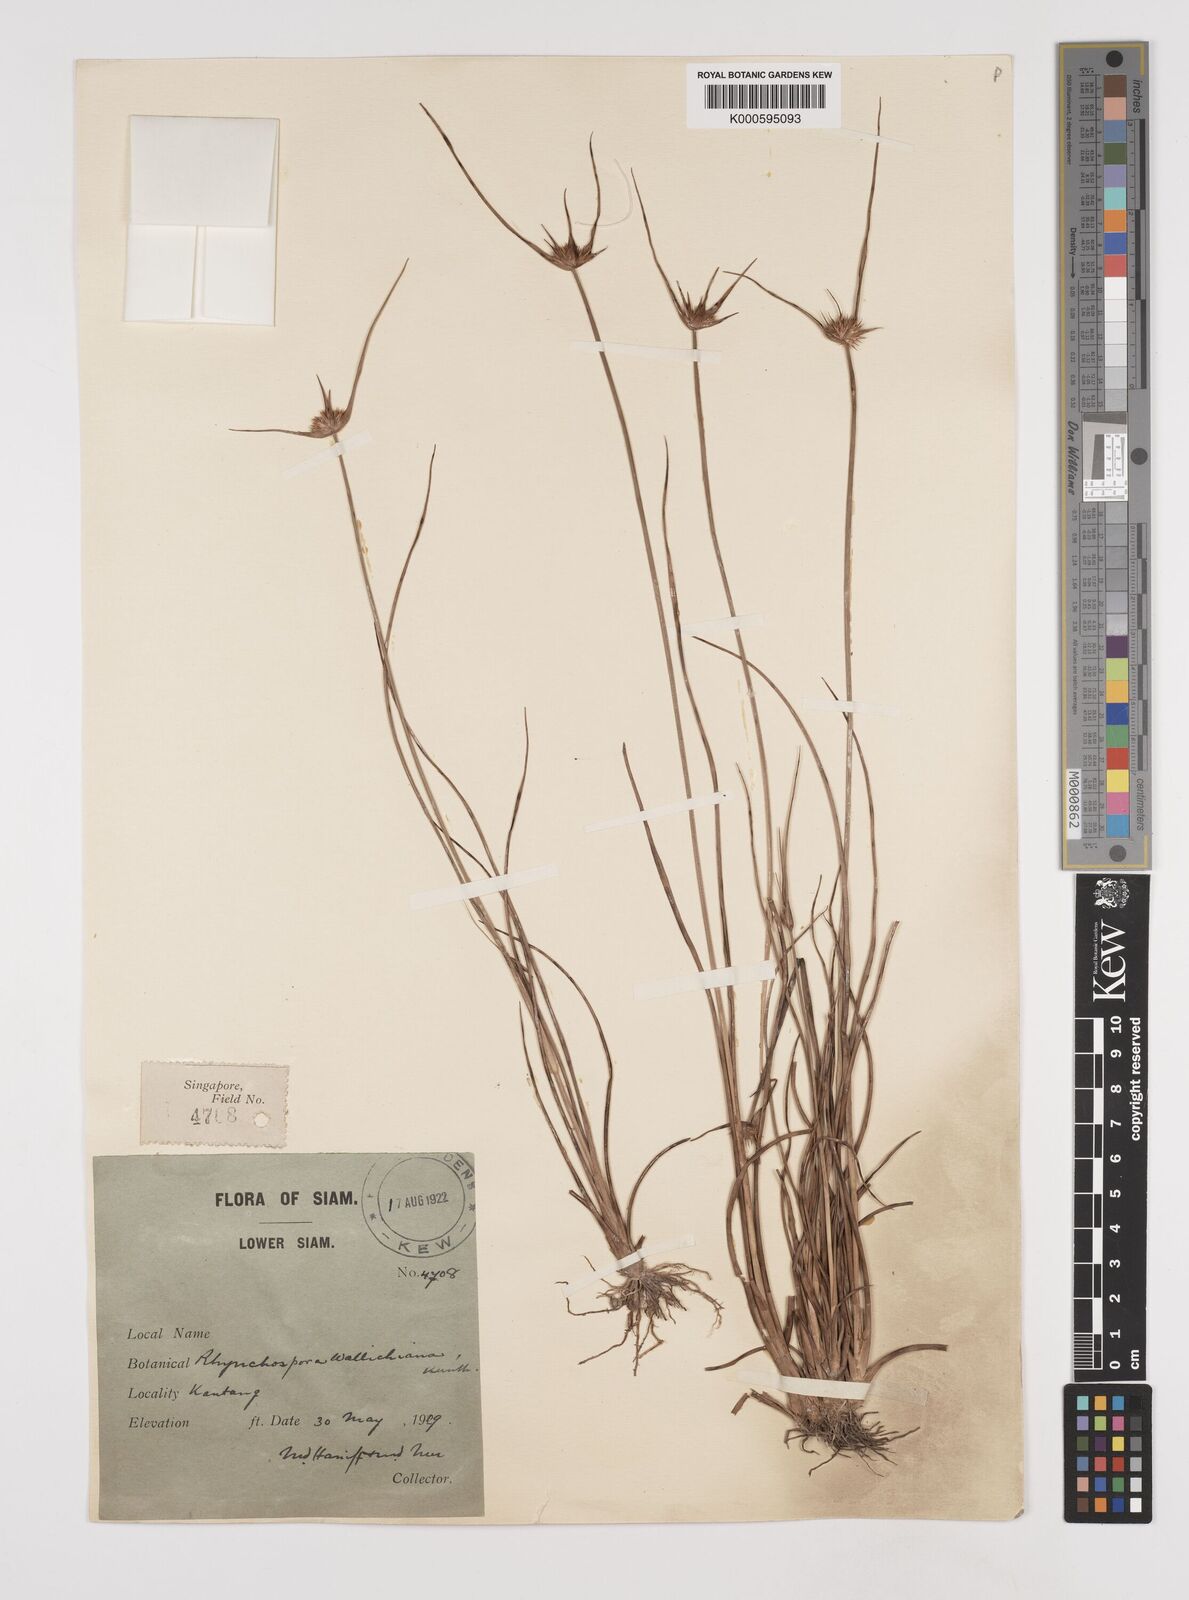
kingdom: Plantae
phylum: Tracheophyta
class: Liliopsida
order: Poales
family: Cyperaceae
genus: Rhynchospora
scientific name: Rhynchospora
